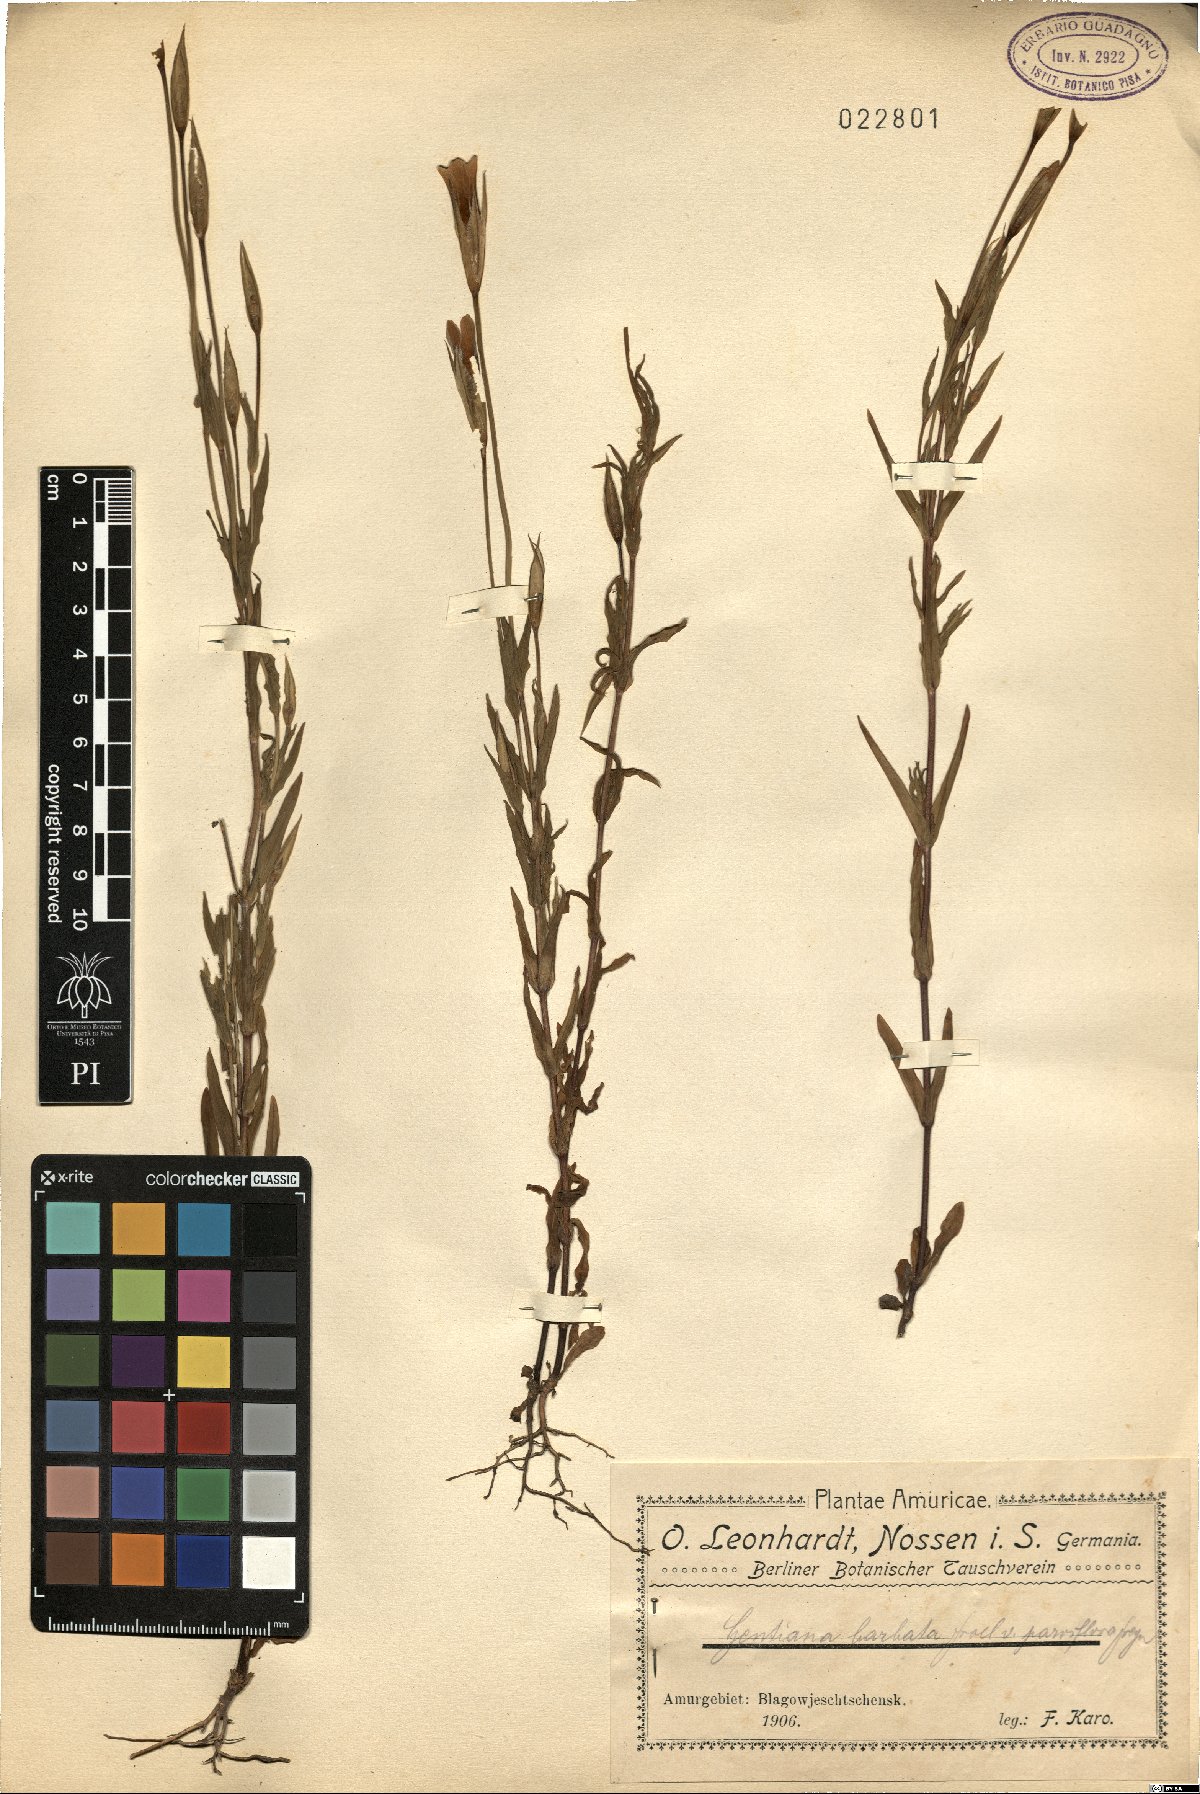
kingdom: Plantae
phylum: Tracheophyta
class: Magnoliopsida
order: Gentianales
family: Gentianaceae
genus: Gentianopsis
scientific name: Gentianopsis barbata
